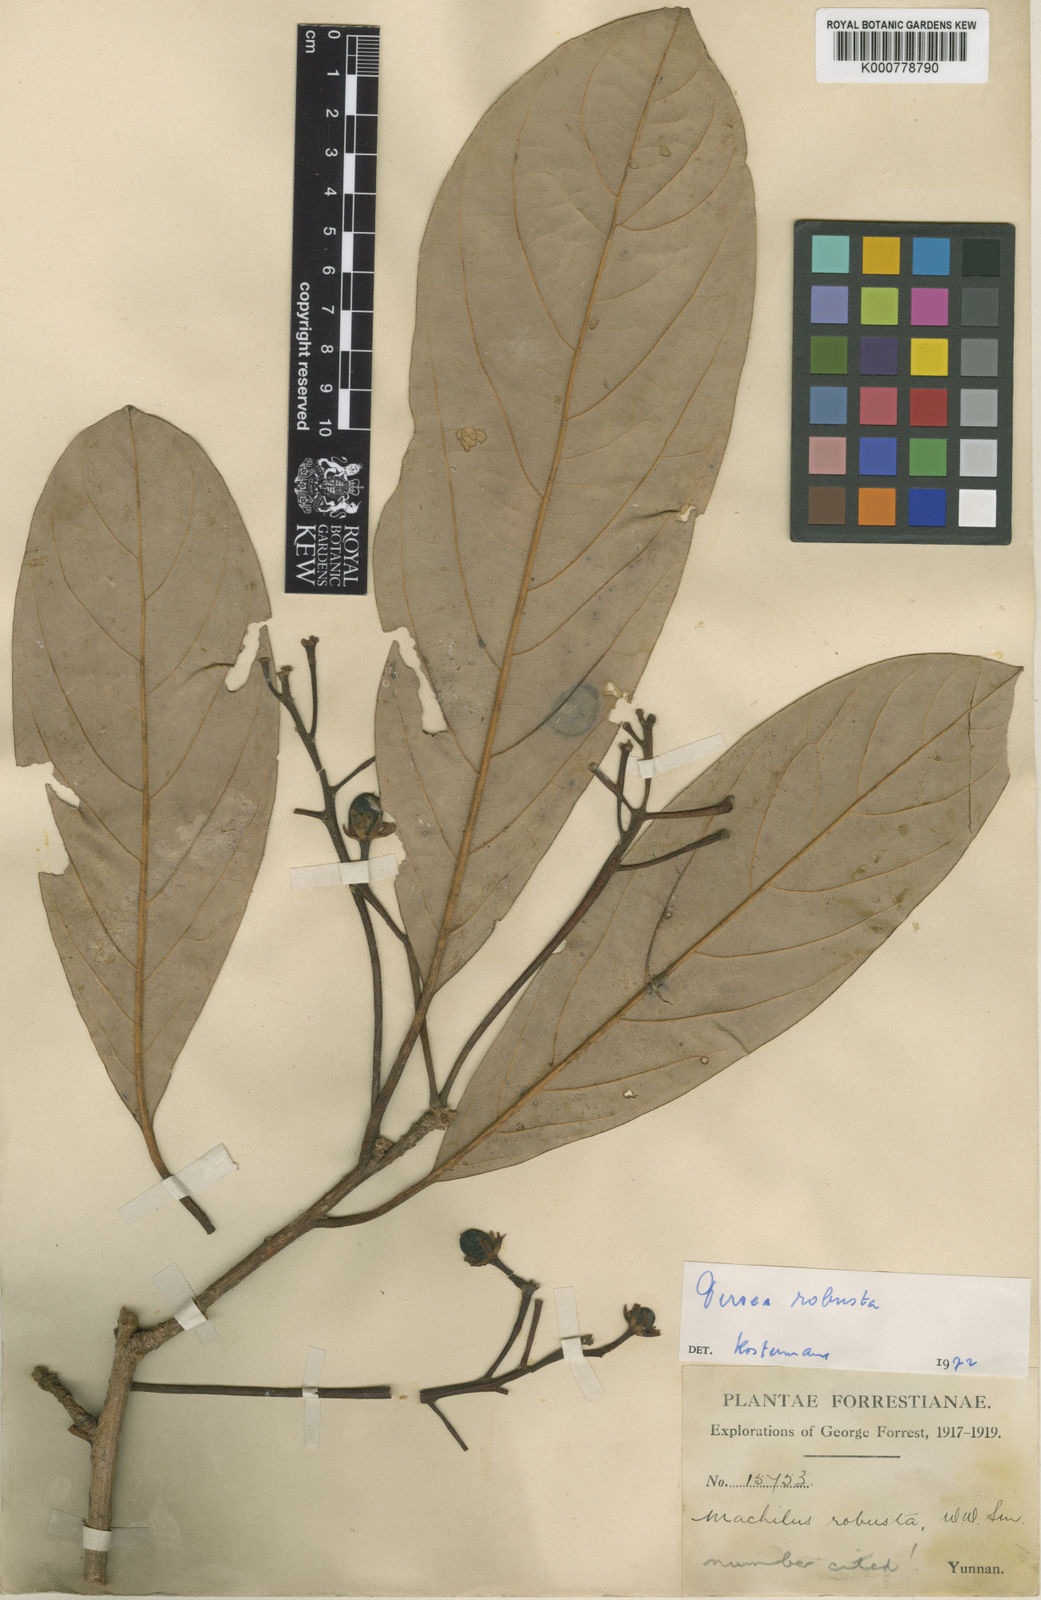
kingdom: Plantae
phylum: Tracheophyta
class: Magnoliopsida
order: Laurales
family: Lauraceae
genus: Machilus
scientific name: Machilus robustus
